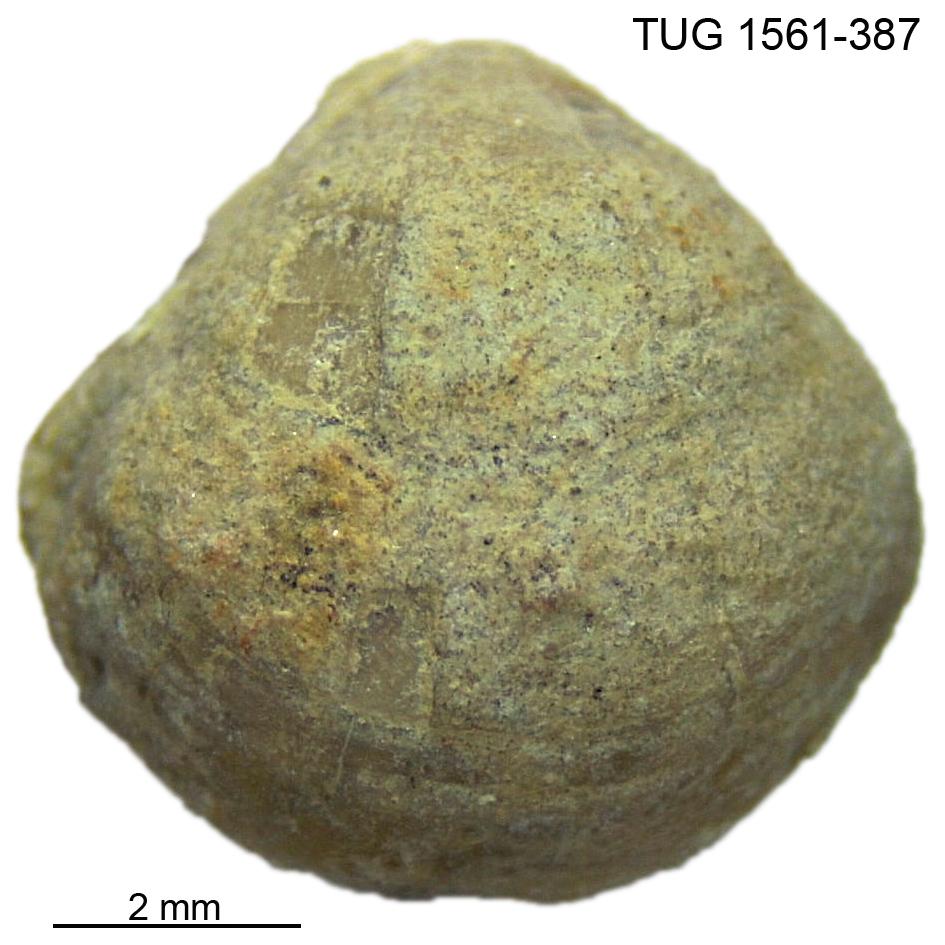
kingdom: Animalia
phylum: Brachiopoda
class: Rhynchonellata
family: Nucleospiridae
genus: Nucleospira
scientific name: Nucleospira Spirifer pisum
